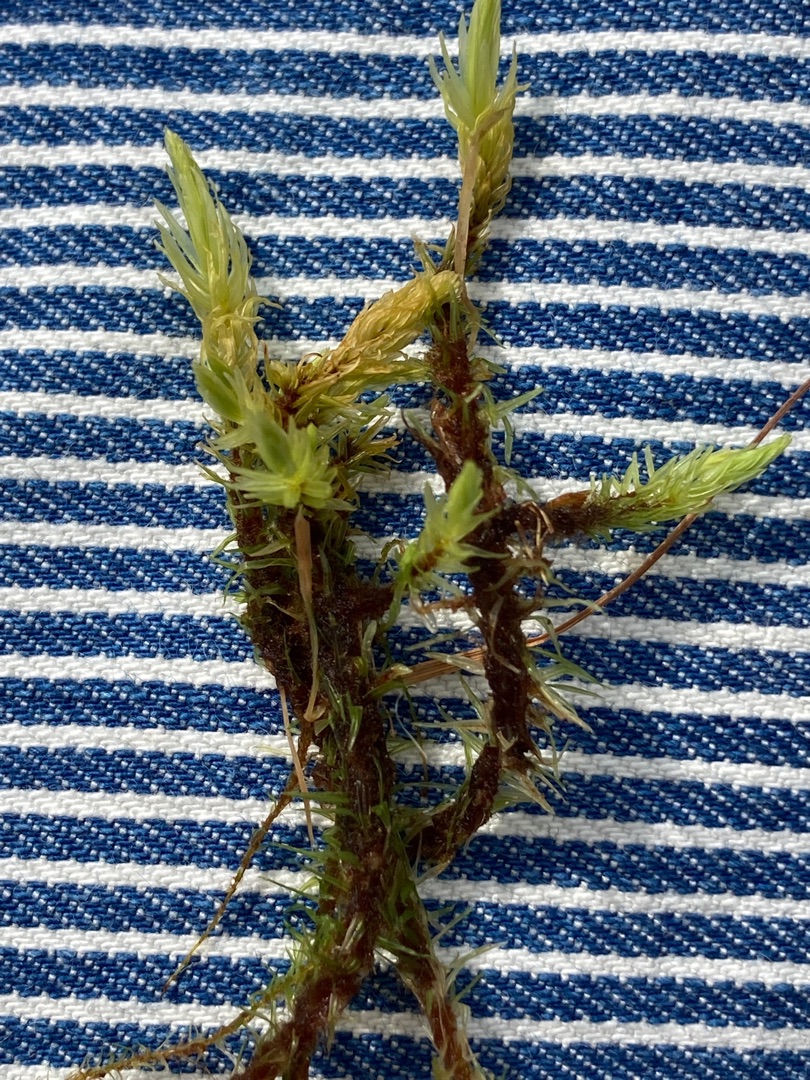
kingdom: Plantae
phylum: Bryophyta
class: Bryopsida
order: Aulacomniales
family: Aulacomniaceae
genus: Aulacomnium
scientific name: Aulacomnium palustre
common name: Almindelig filtmos
